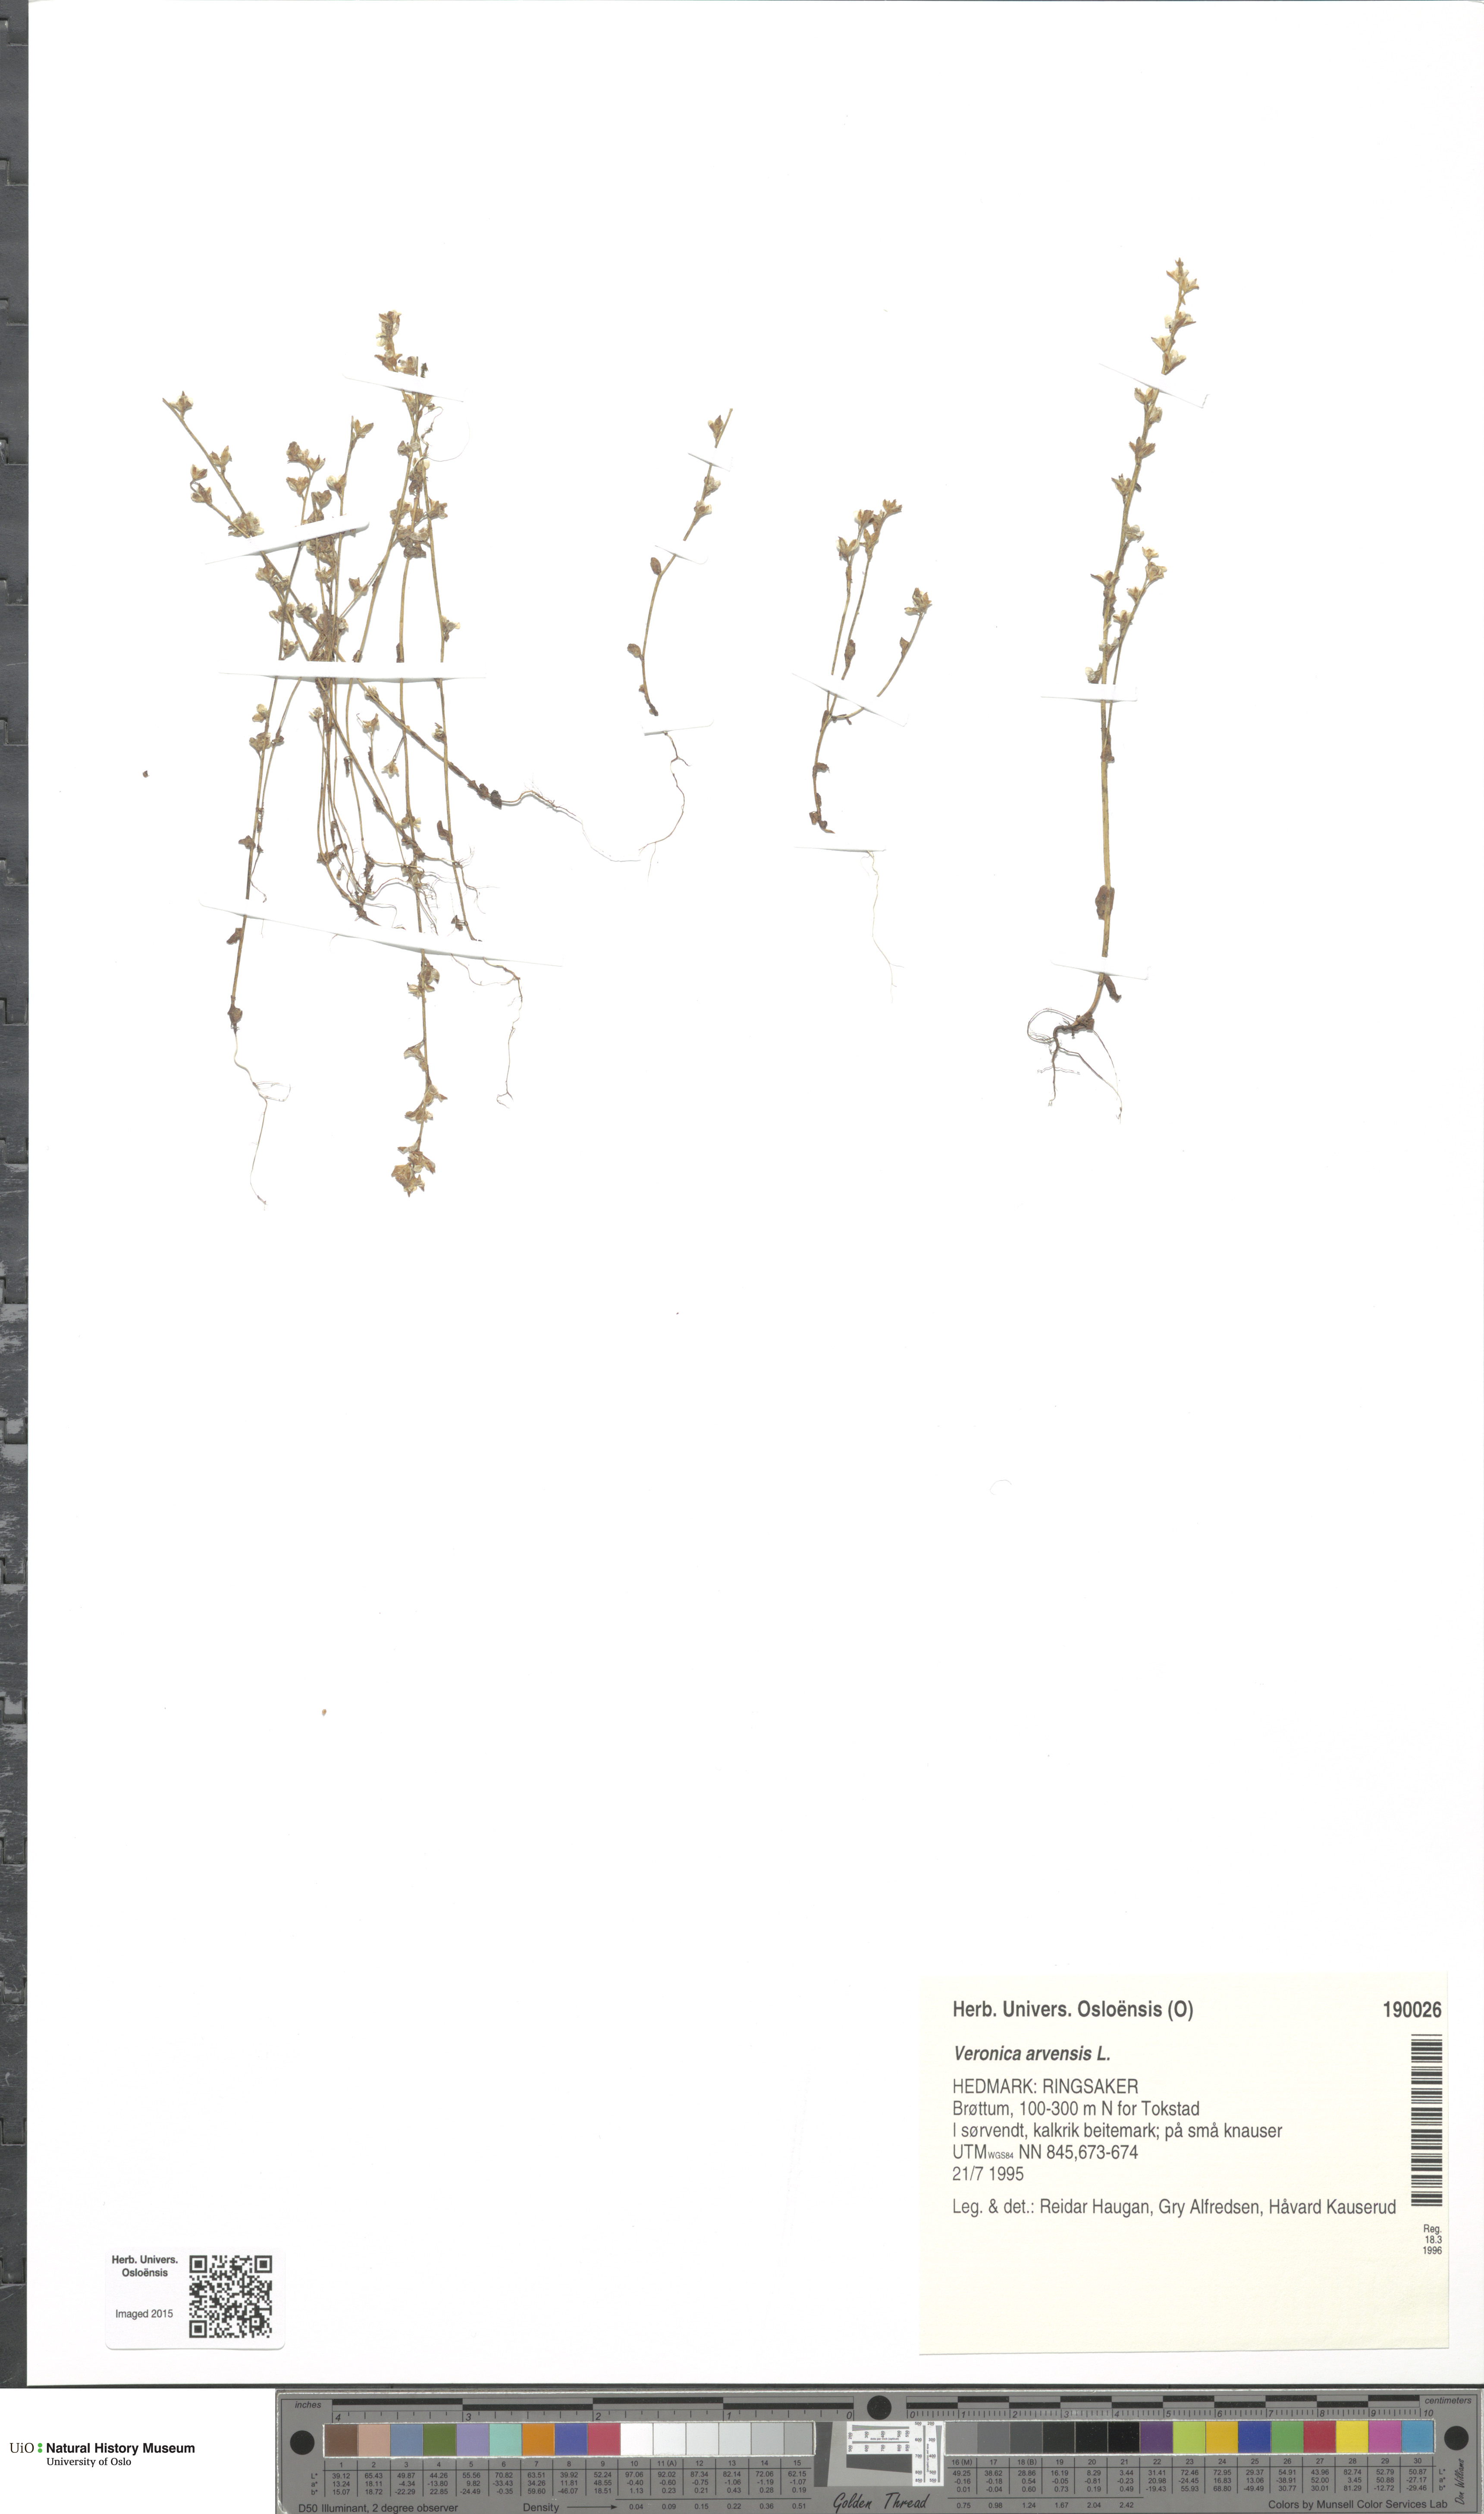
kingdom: Plantae
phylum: Tracheophyta
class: Magnoliopsida
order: Lamiales
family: Plantaginaceae
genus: Veronica
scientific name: Veronica arvensis
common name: Corn speedwell
